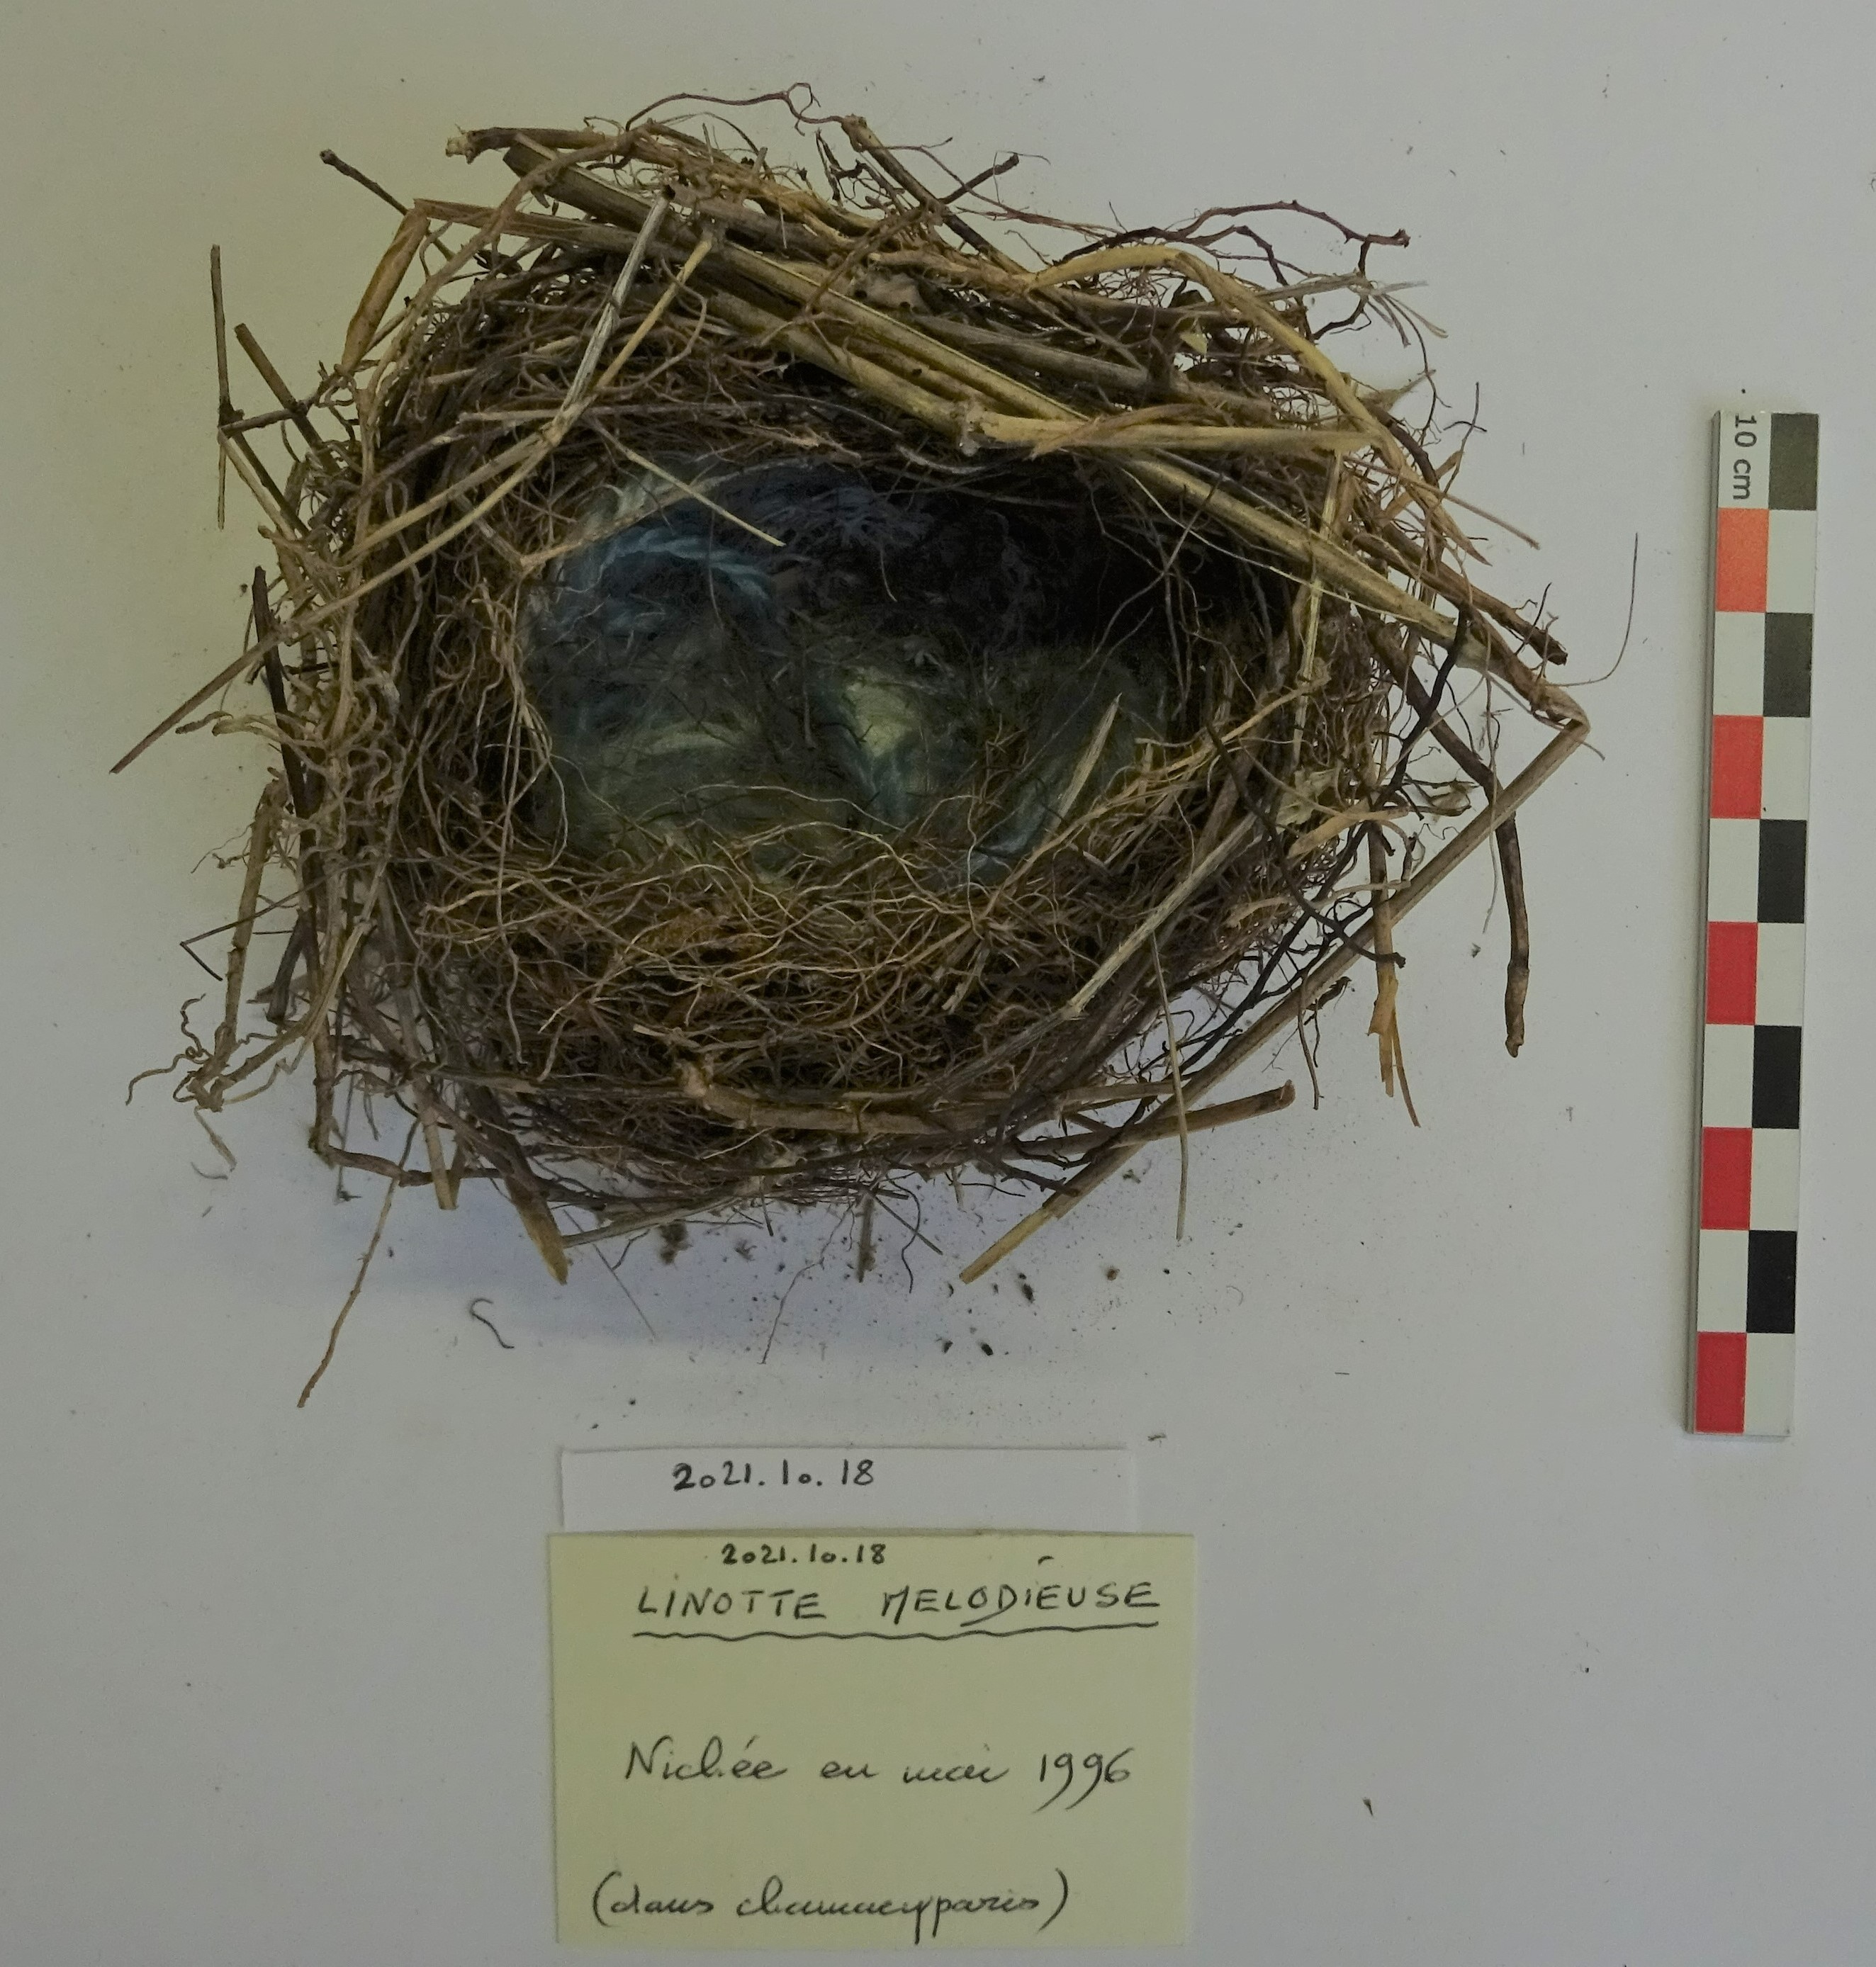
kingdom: Animalia
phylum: Chordata
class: Aves
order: Passeriformes
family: Fringillidae
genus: Linaria
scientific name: Linaria cannabina
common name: Common linnet
